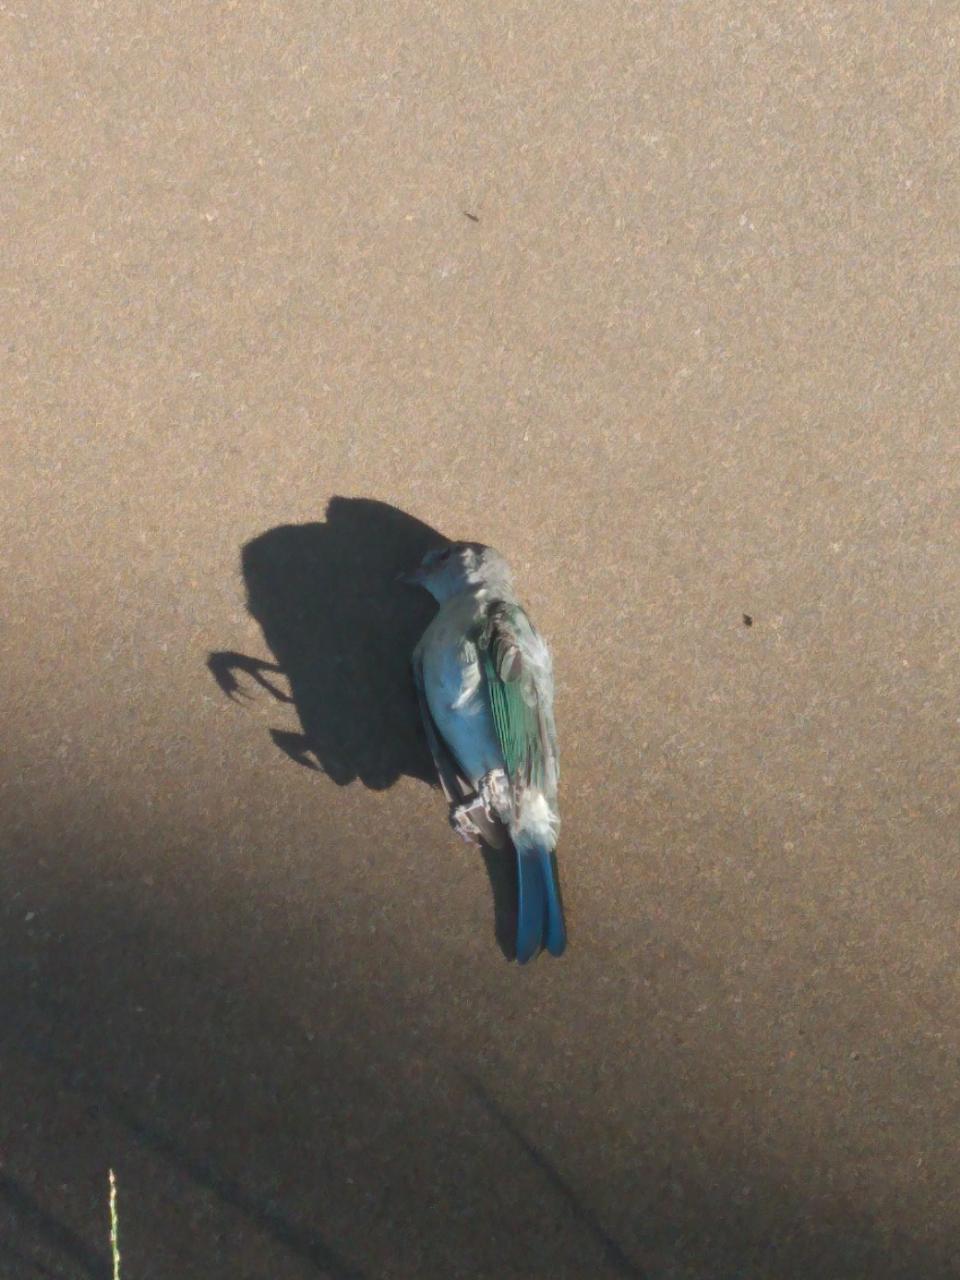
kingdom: Animalia
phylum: Chordata
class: Aves
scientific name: Aves
